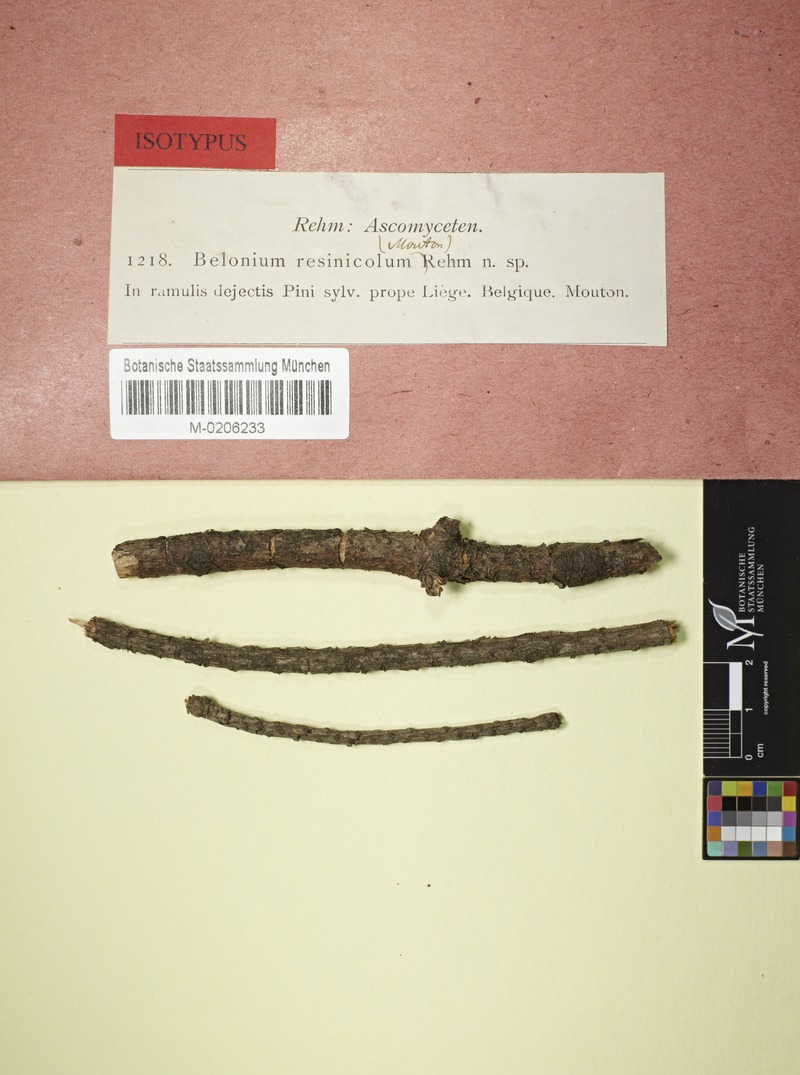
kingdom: Fungi
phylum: Ascomycota
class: Leotiomycetes
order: Helotiales
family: Calloriaceae
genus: Micropodia
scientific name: Micropodia resinicola
